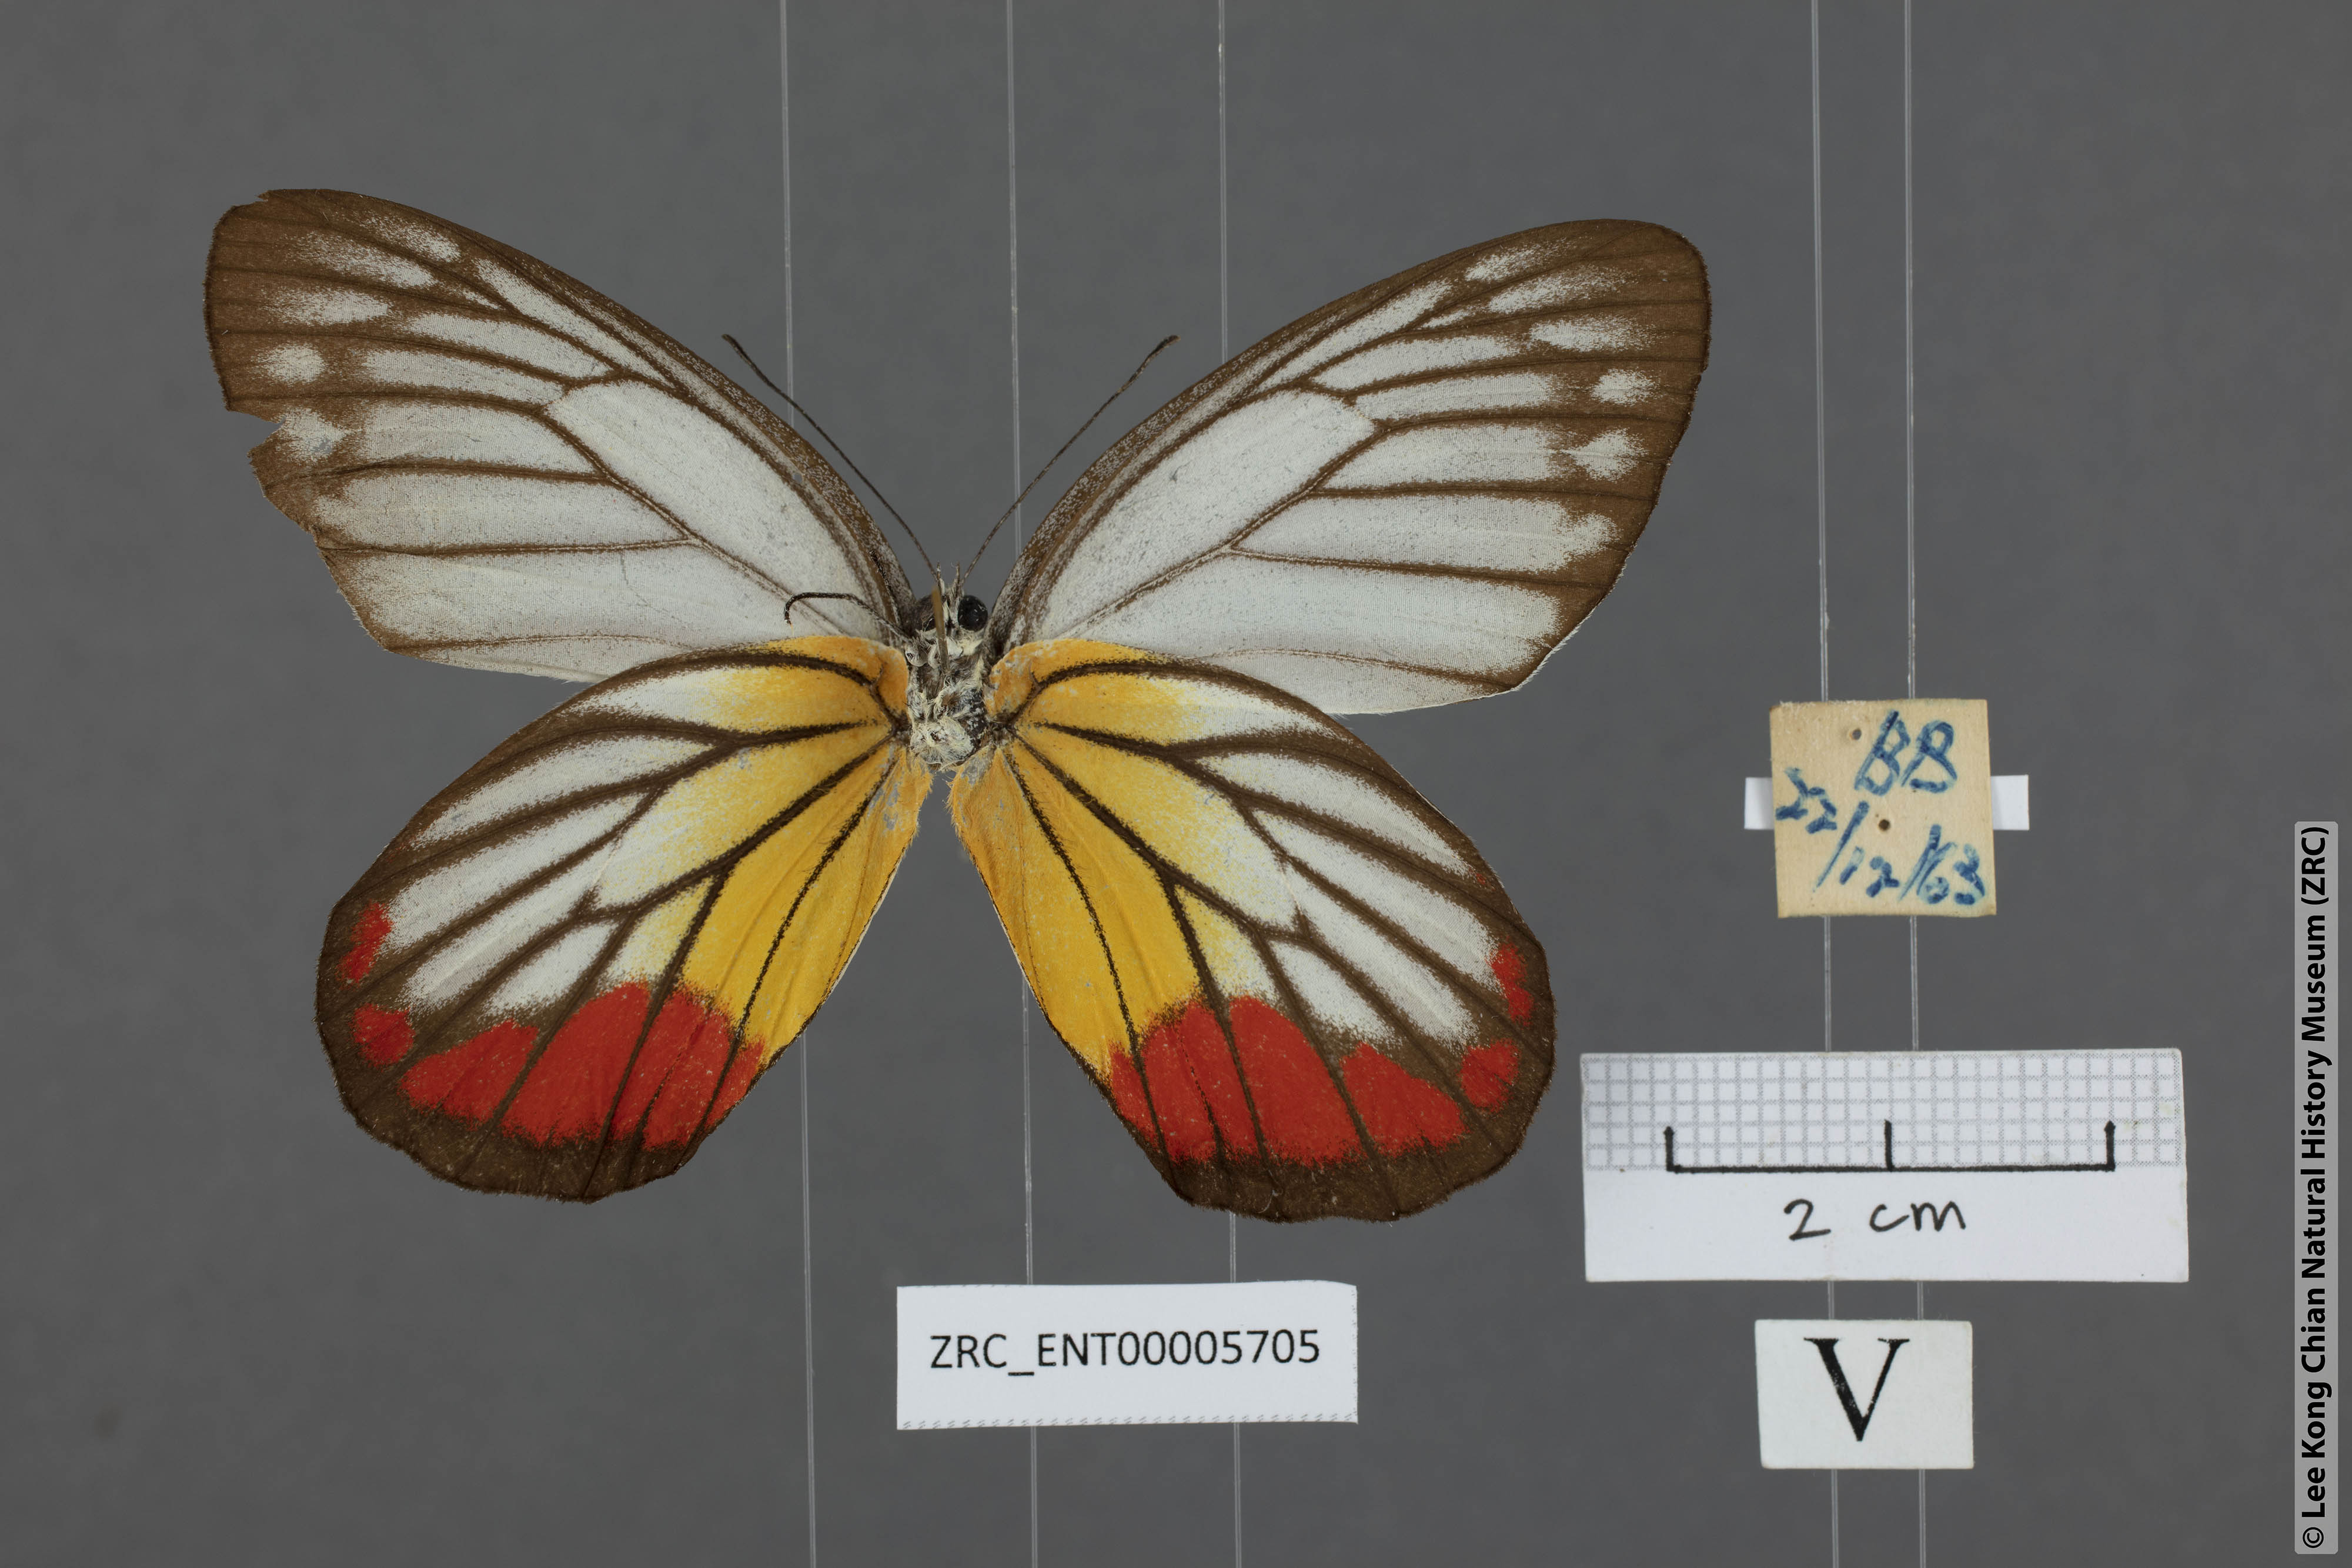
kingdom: Animalia
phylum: Arthropoda
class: Insecta
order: Lepidoptera
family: Pieridae
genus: Delias
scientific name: Delias hyparete
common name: Painted jezebel
